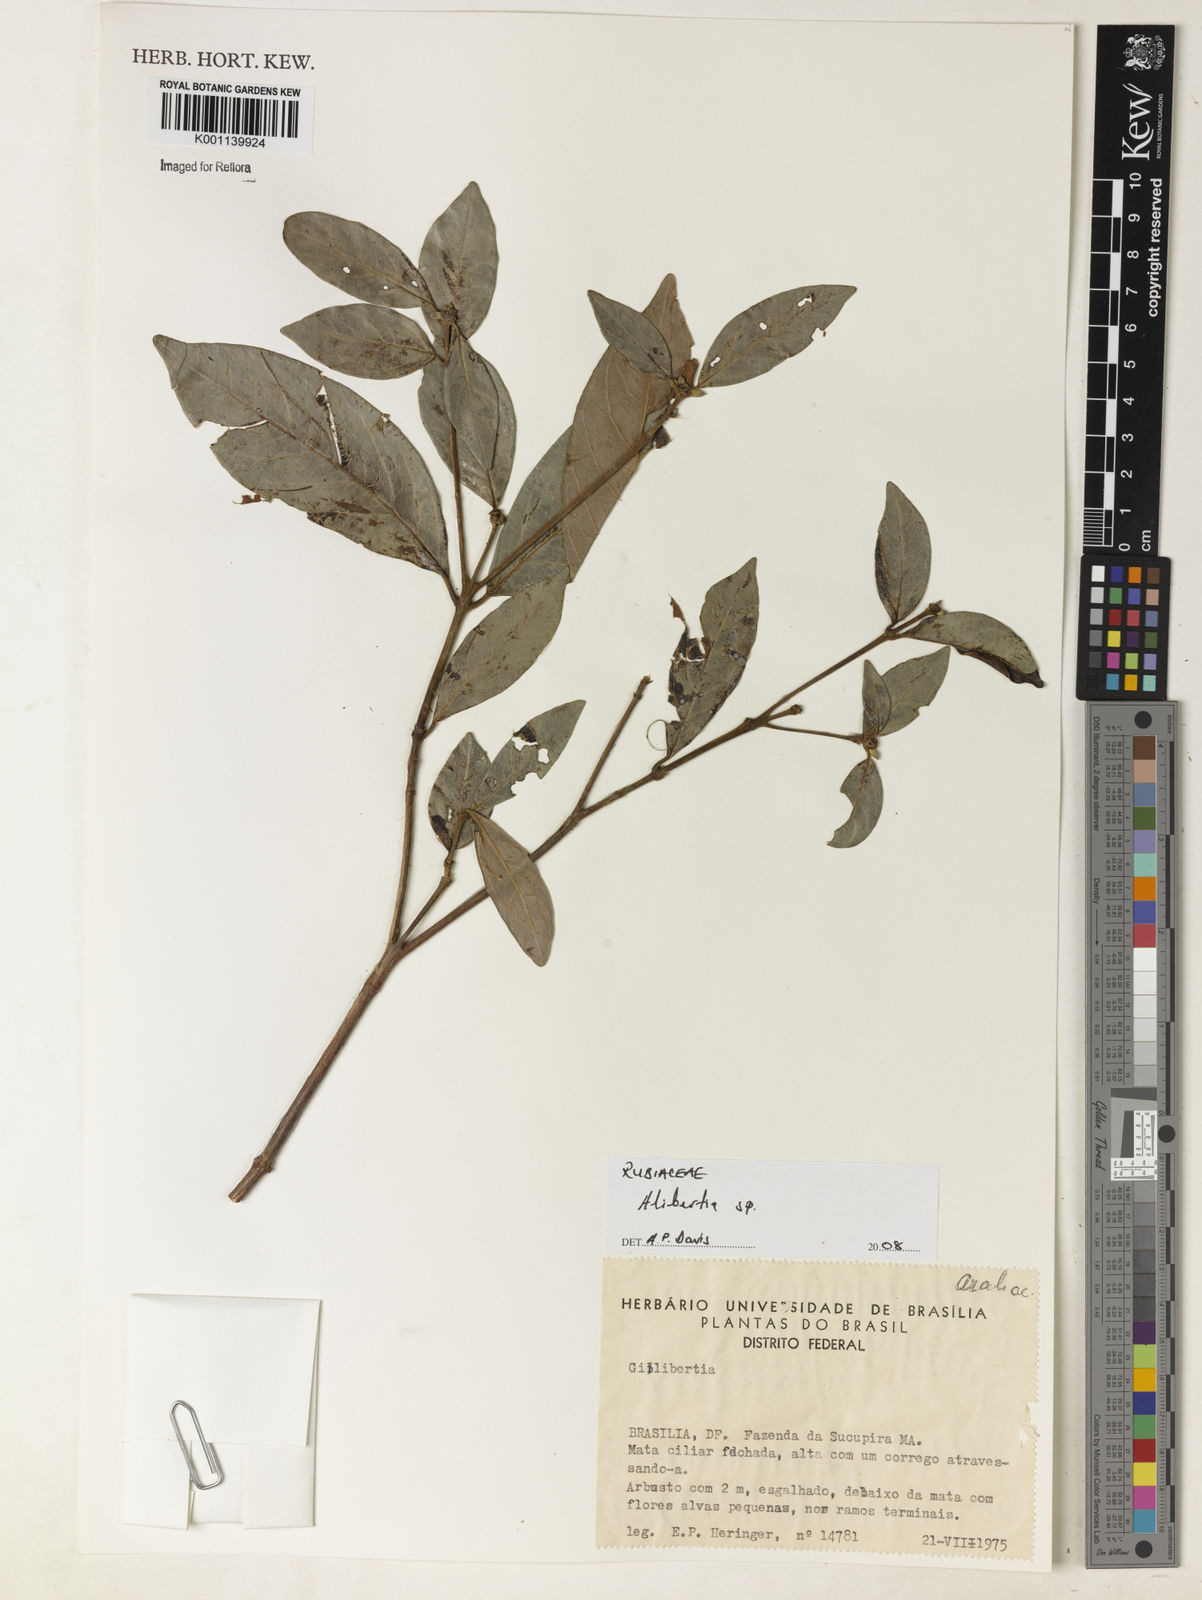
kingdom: Plantae
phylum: Tracheophyta
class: Magnoliopsida
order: Gentianales
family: Rubiaceae
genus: Alibertia
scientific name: Alibertia
